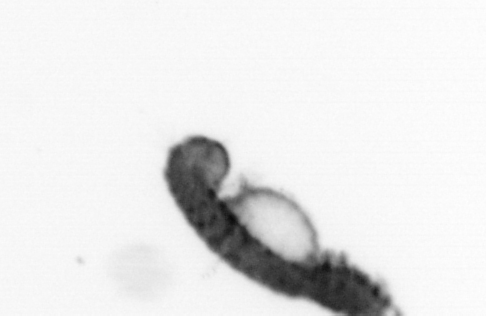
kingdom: Animalia
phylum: Annelida
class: Polychaeta
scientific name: Polychaeta
